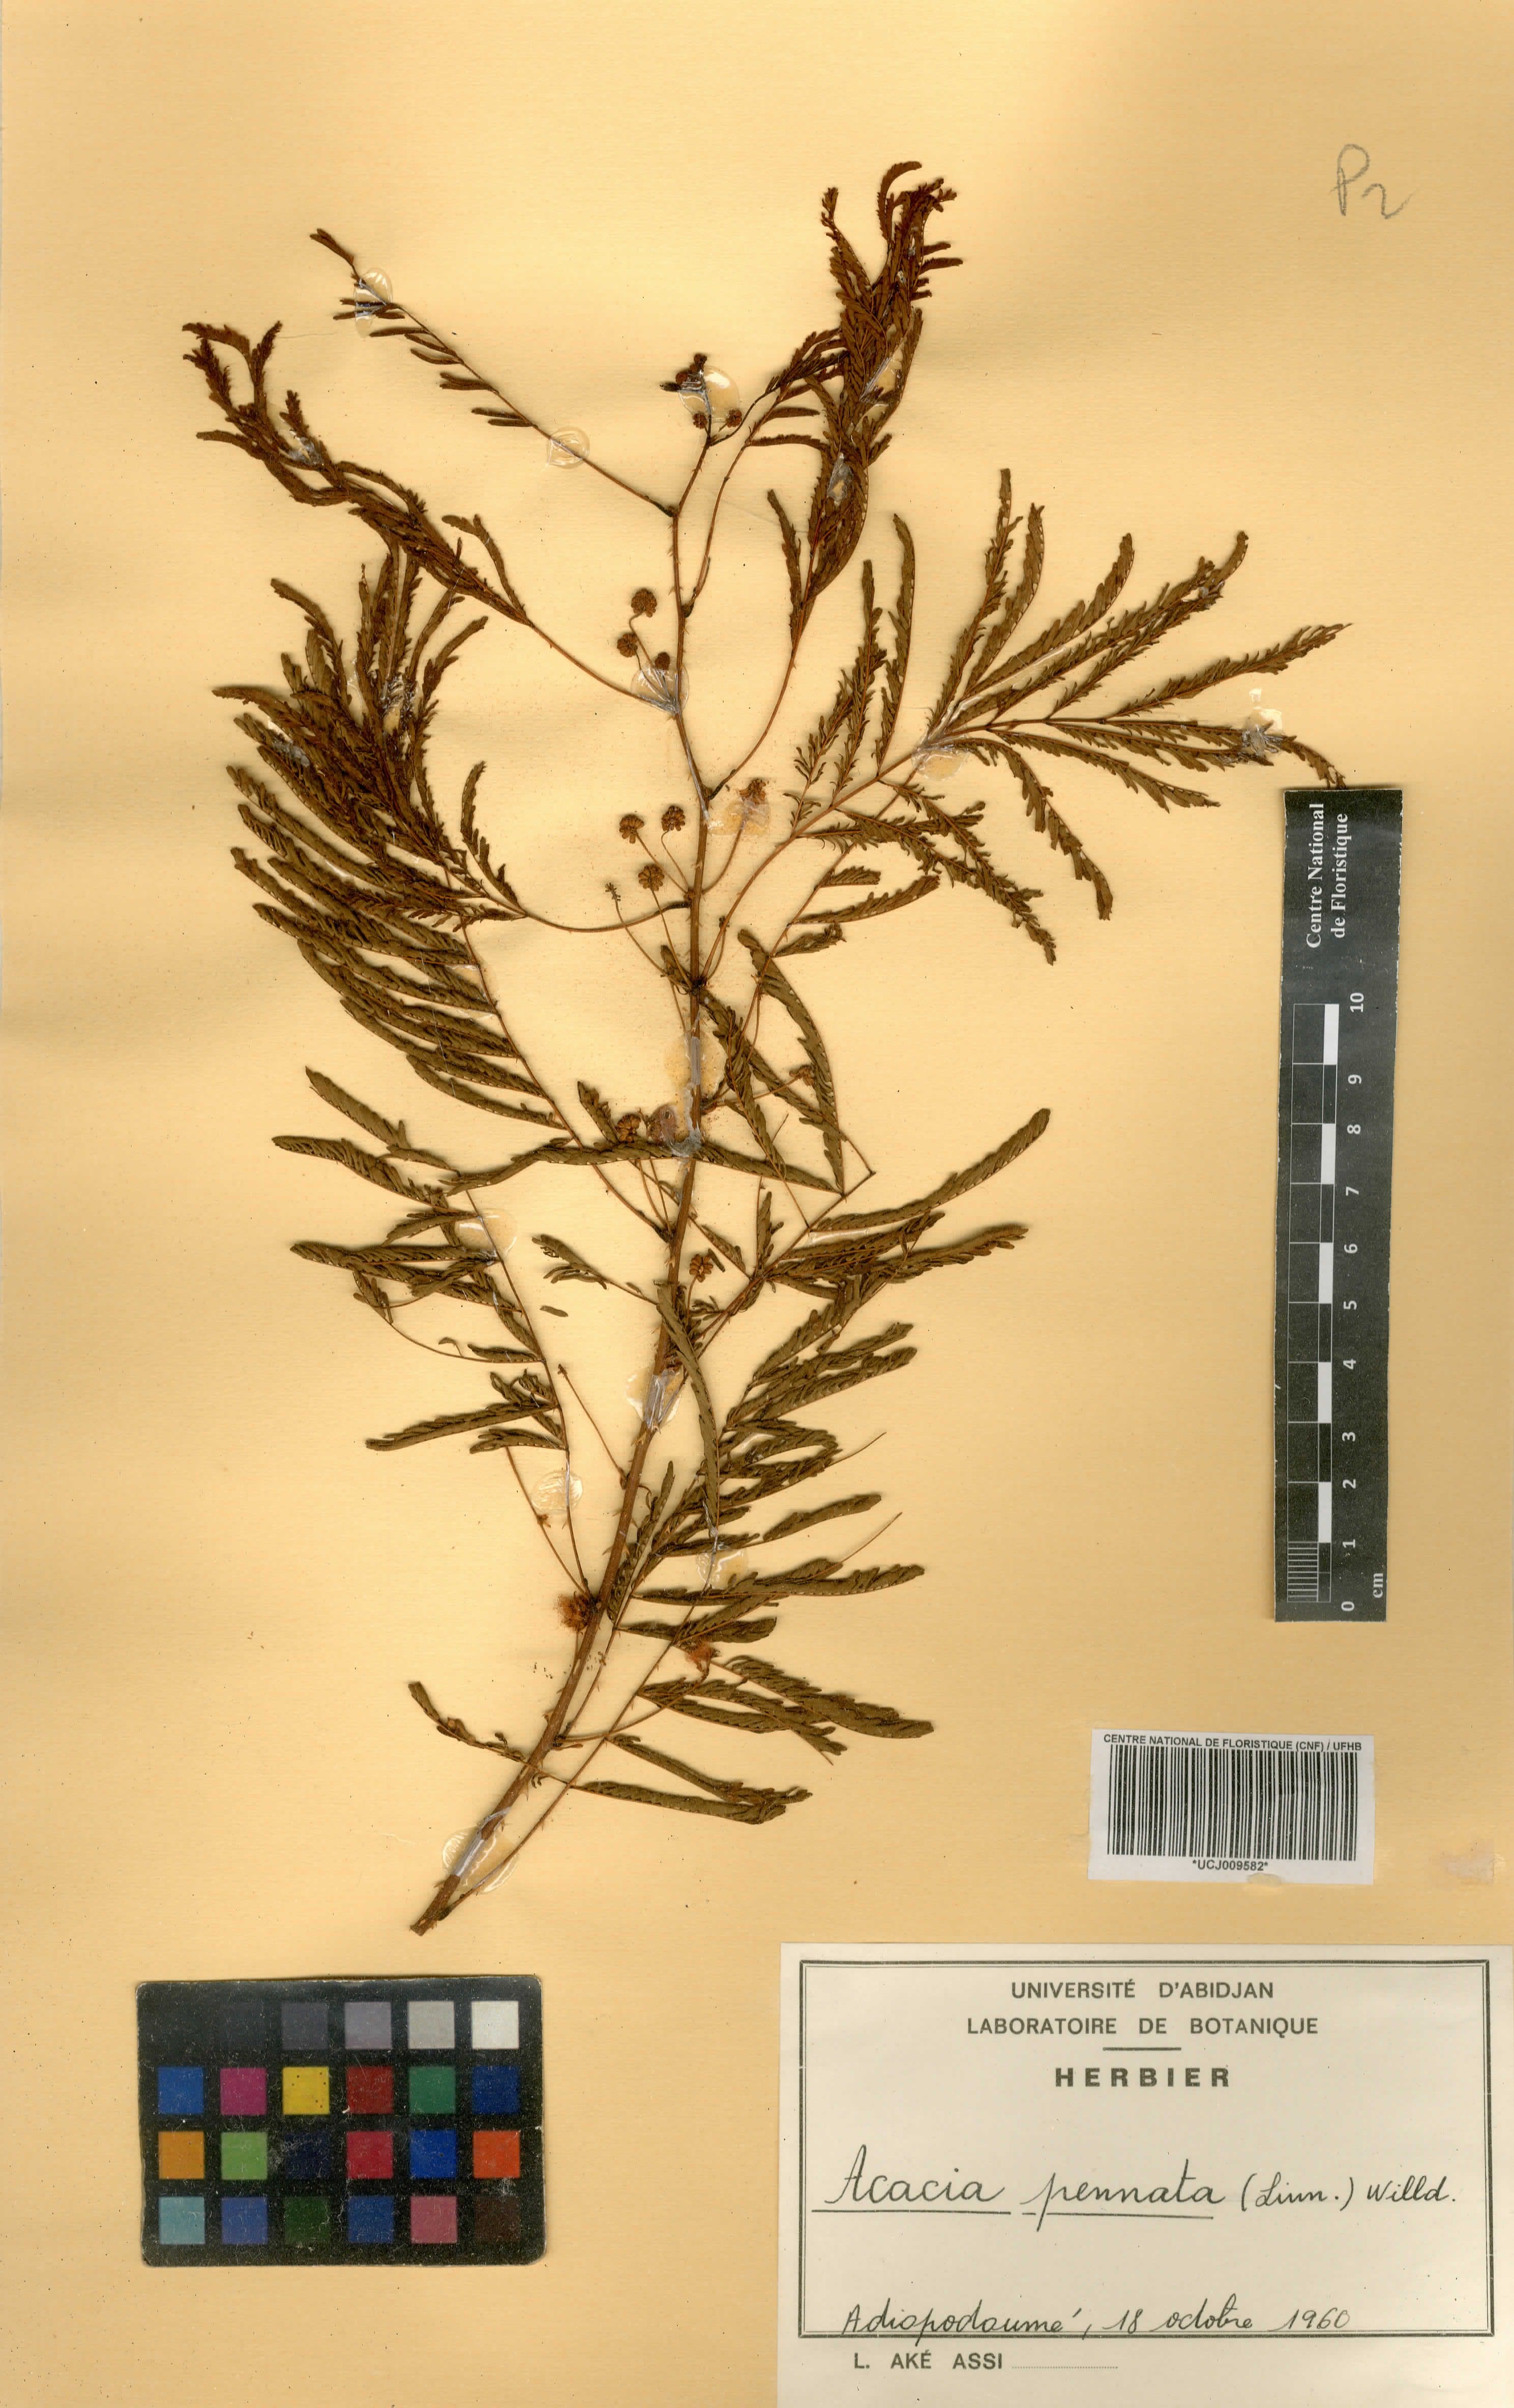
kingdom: Plantae
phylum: Tracheophyta
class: Magnoliopsida
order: Fabales
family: Fabaceae
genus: Senegalia
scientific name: Senegalia pennata
